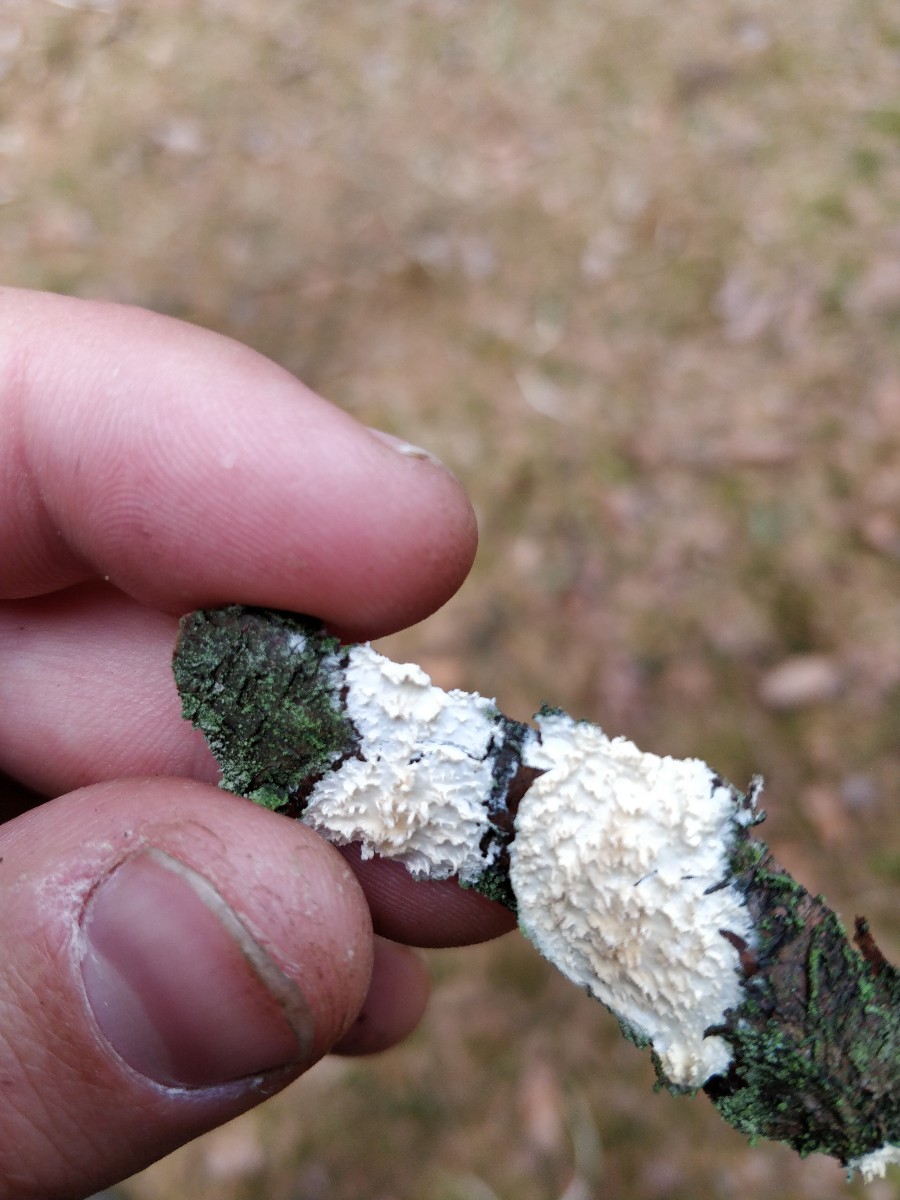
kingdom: Fungi
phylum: Basidiomycota
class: Agaricomycetes
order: Hymenochaetales
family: Schizoporaceae
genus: Xylodon
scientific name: Xylodon radula
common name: grovtandet kalkskind
